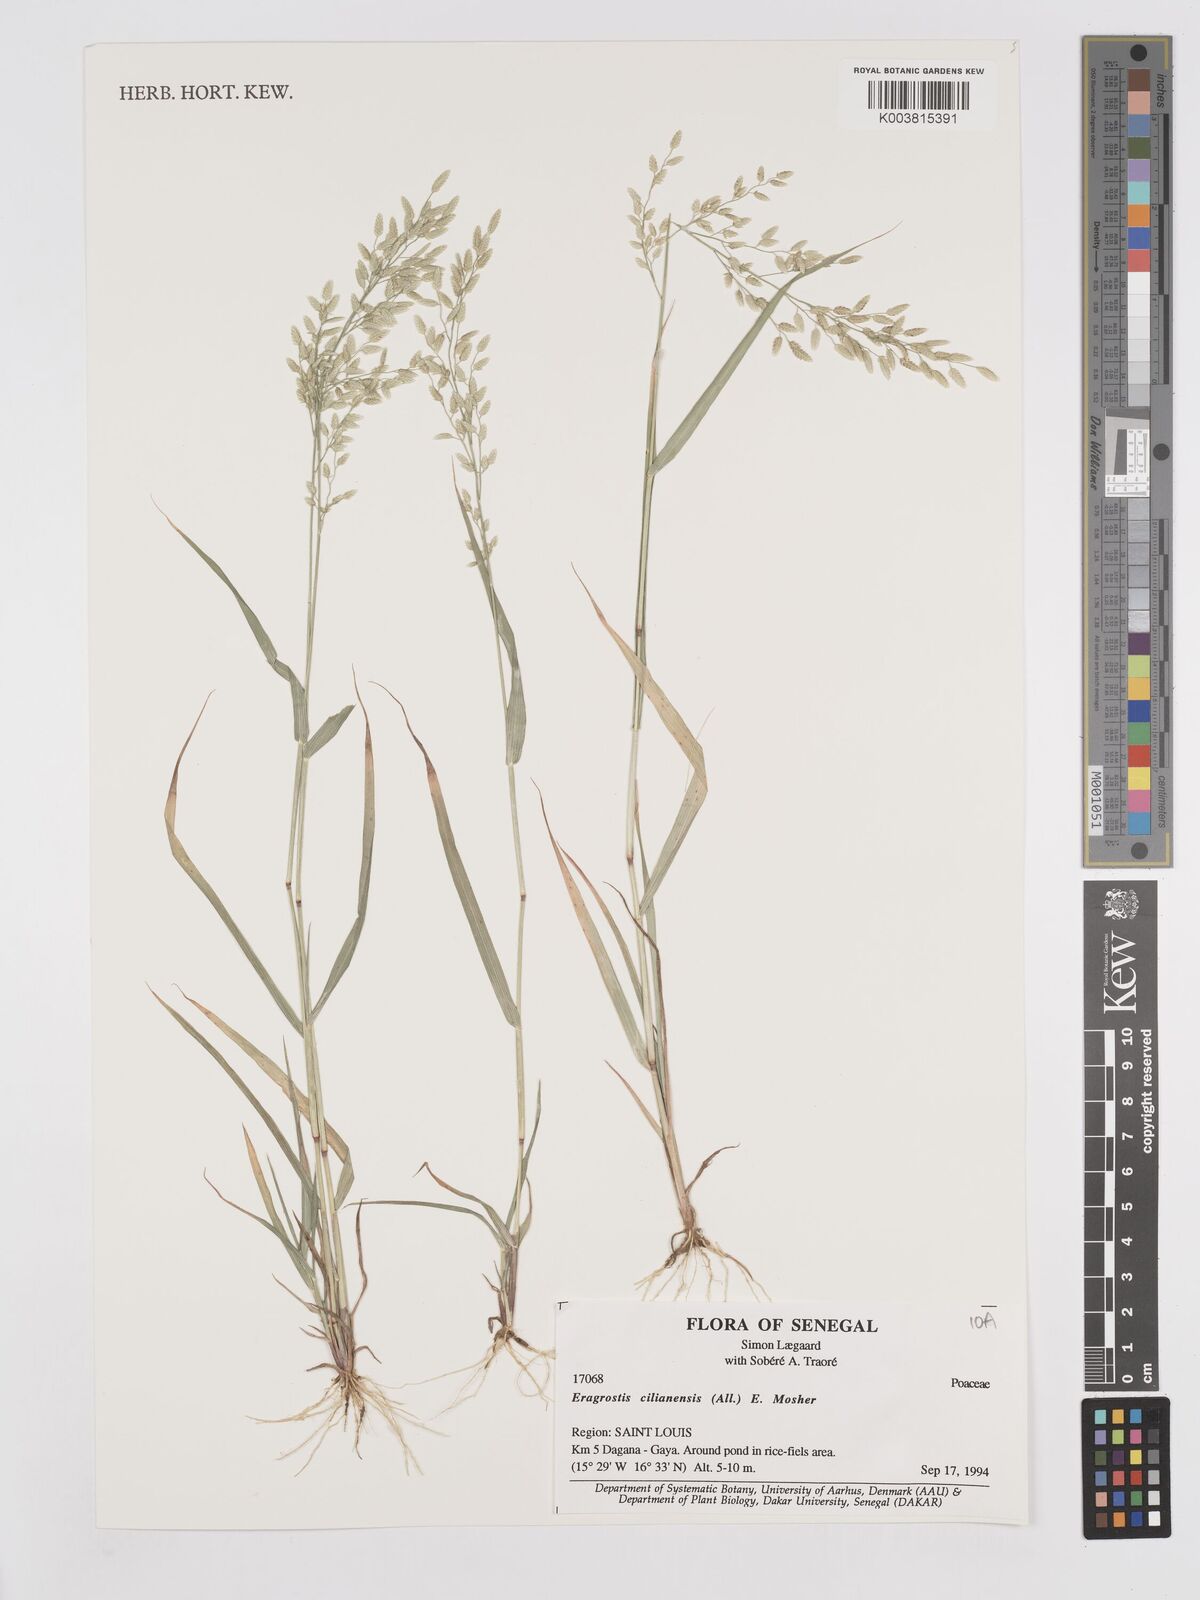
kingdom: Plantae
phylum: Tracheophyta
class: Liliopsida
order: Poales
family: Poaceae
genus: Eragrostis
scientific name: Eragrostis cilianensis
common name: Stinkgrass
